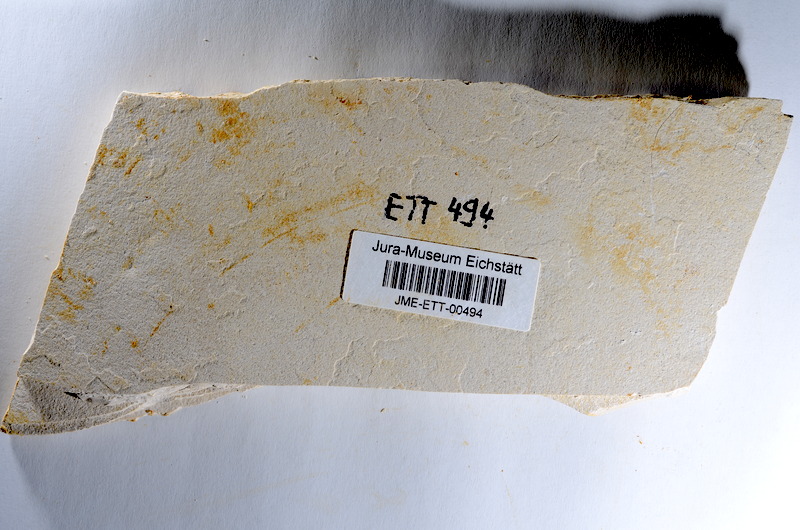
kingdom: Animalia
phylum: Chordata
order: Salmoniformes
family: Orthogonikleithridae
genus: Orthogonikleithrus
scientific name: Orthogonikleithrus hoelli
